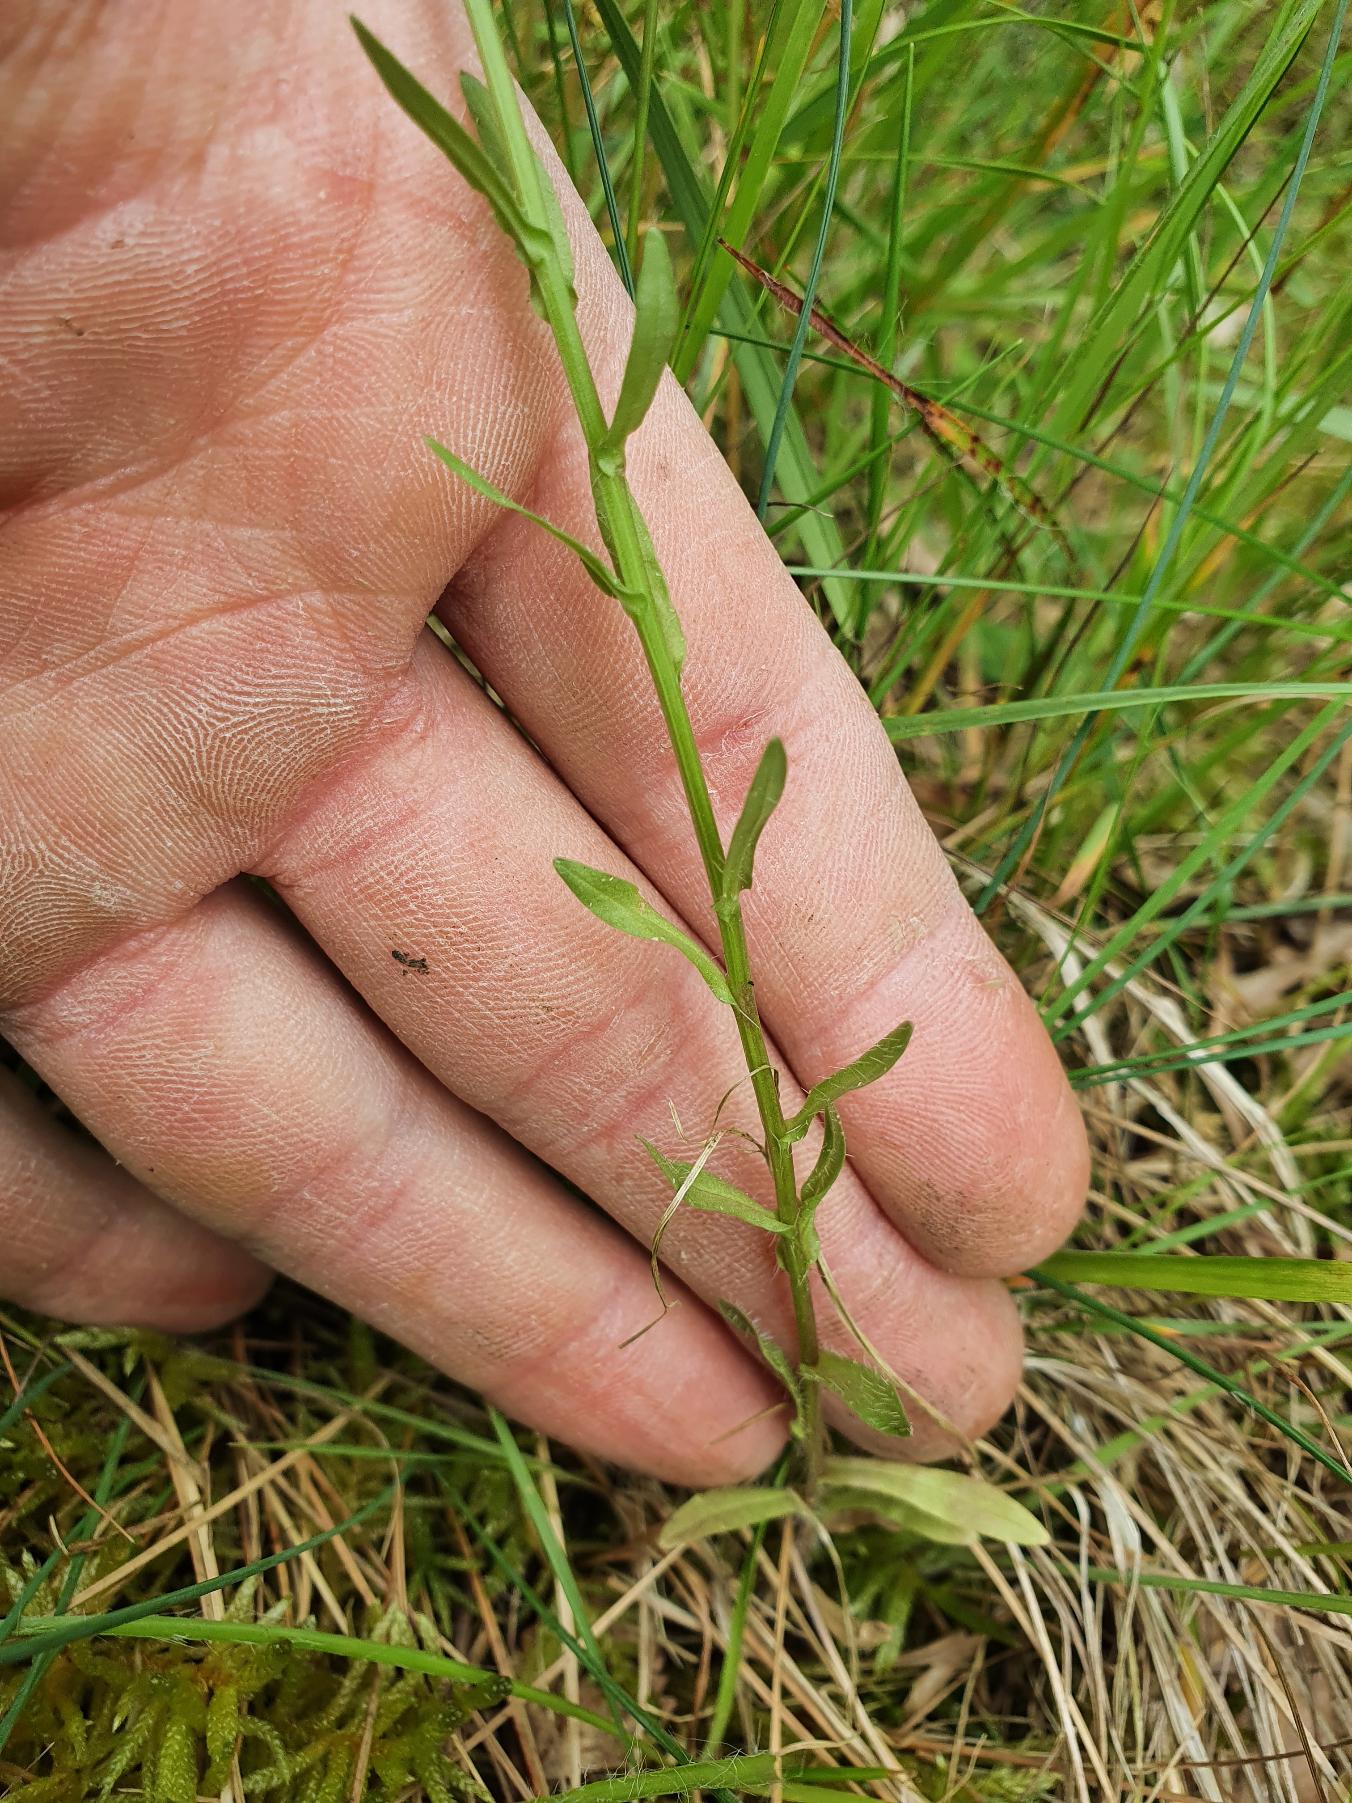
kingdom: Plantae
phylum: Tracheophyta
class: Magnoliopsida
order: Asterales
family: Campanulaceae
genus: Jasione
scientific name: Jasione montana
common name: Blåmunke
